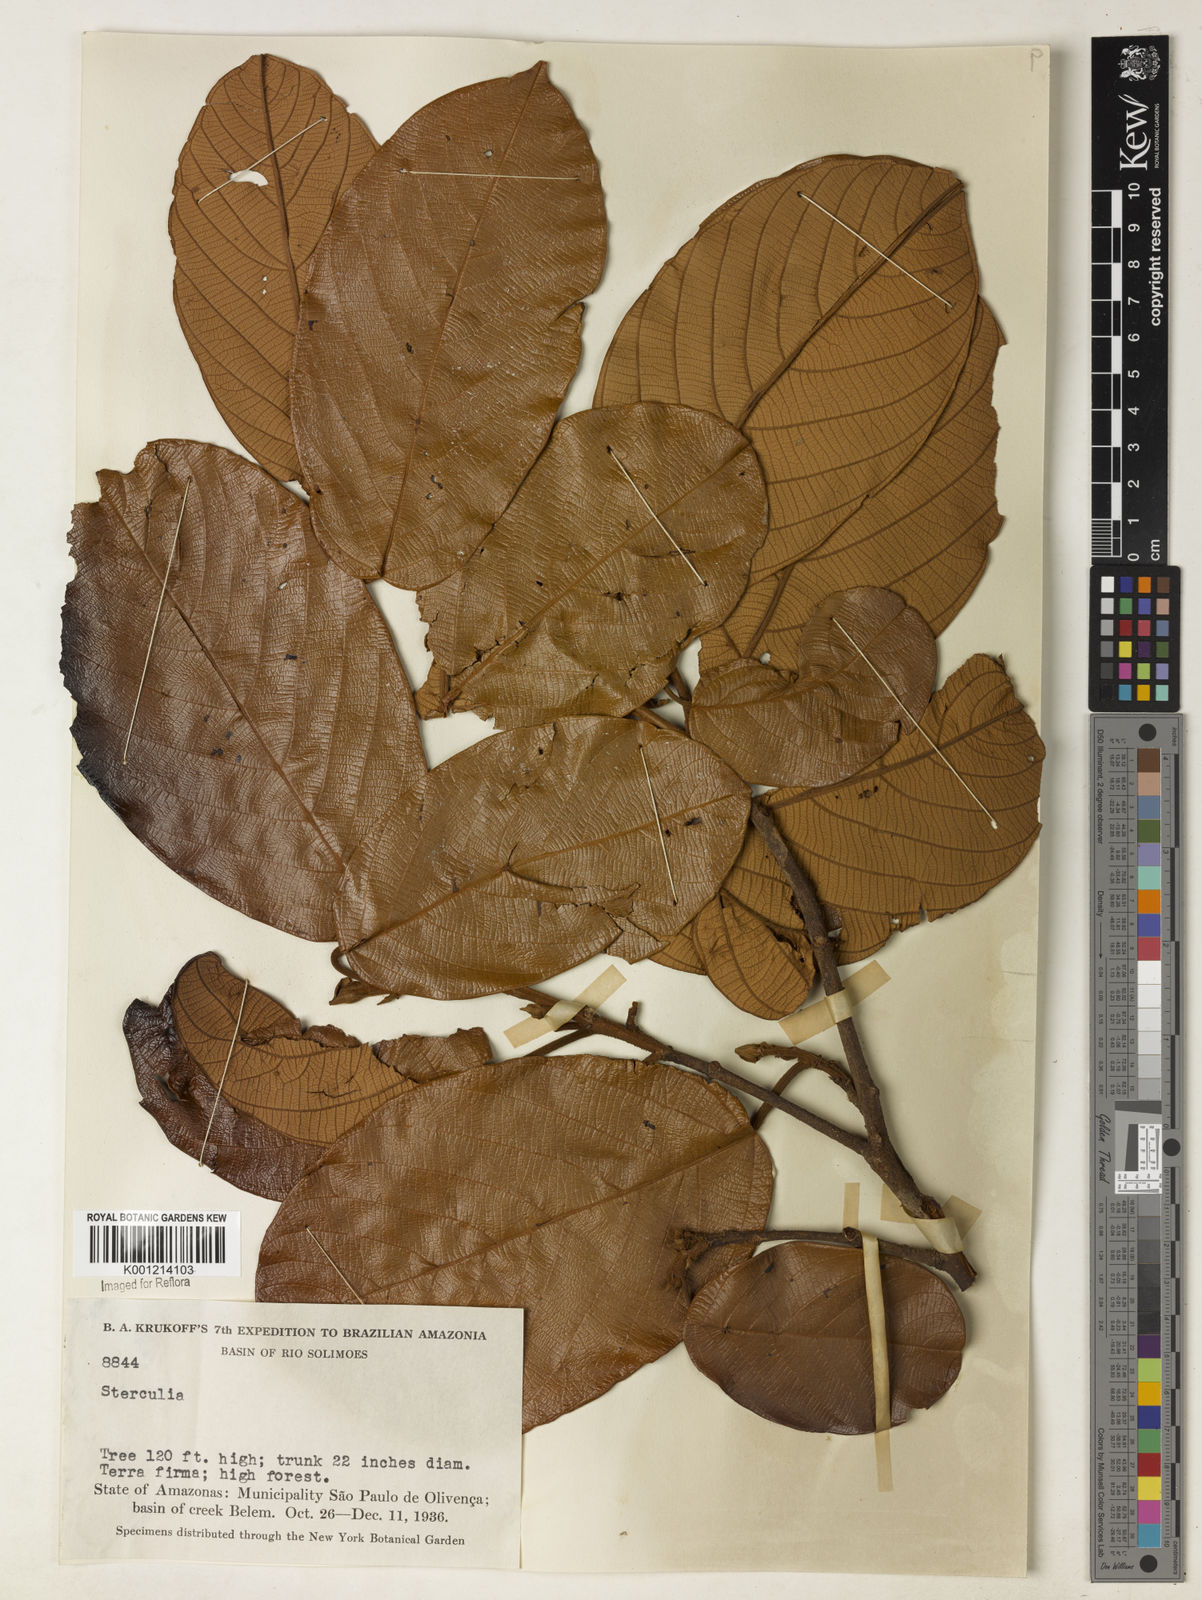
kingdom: Plantae
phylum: Tracheophyta
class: Magnoliopsida
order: Malvales
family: Malvaceae
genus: Sterculia
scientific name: Sterculia
